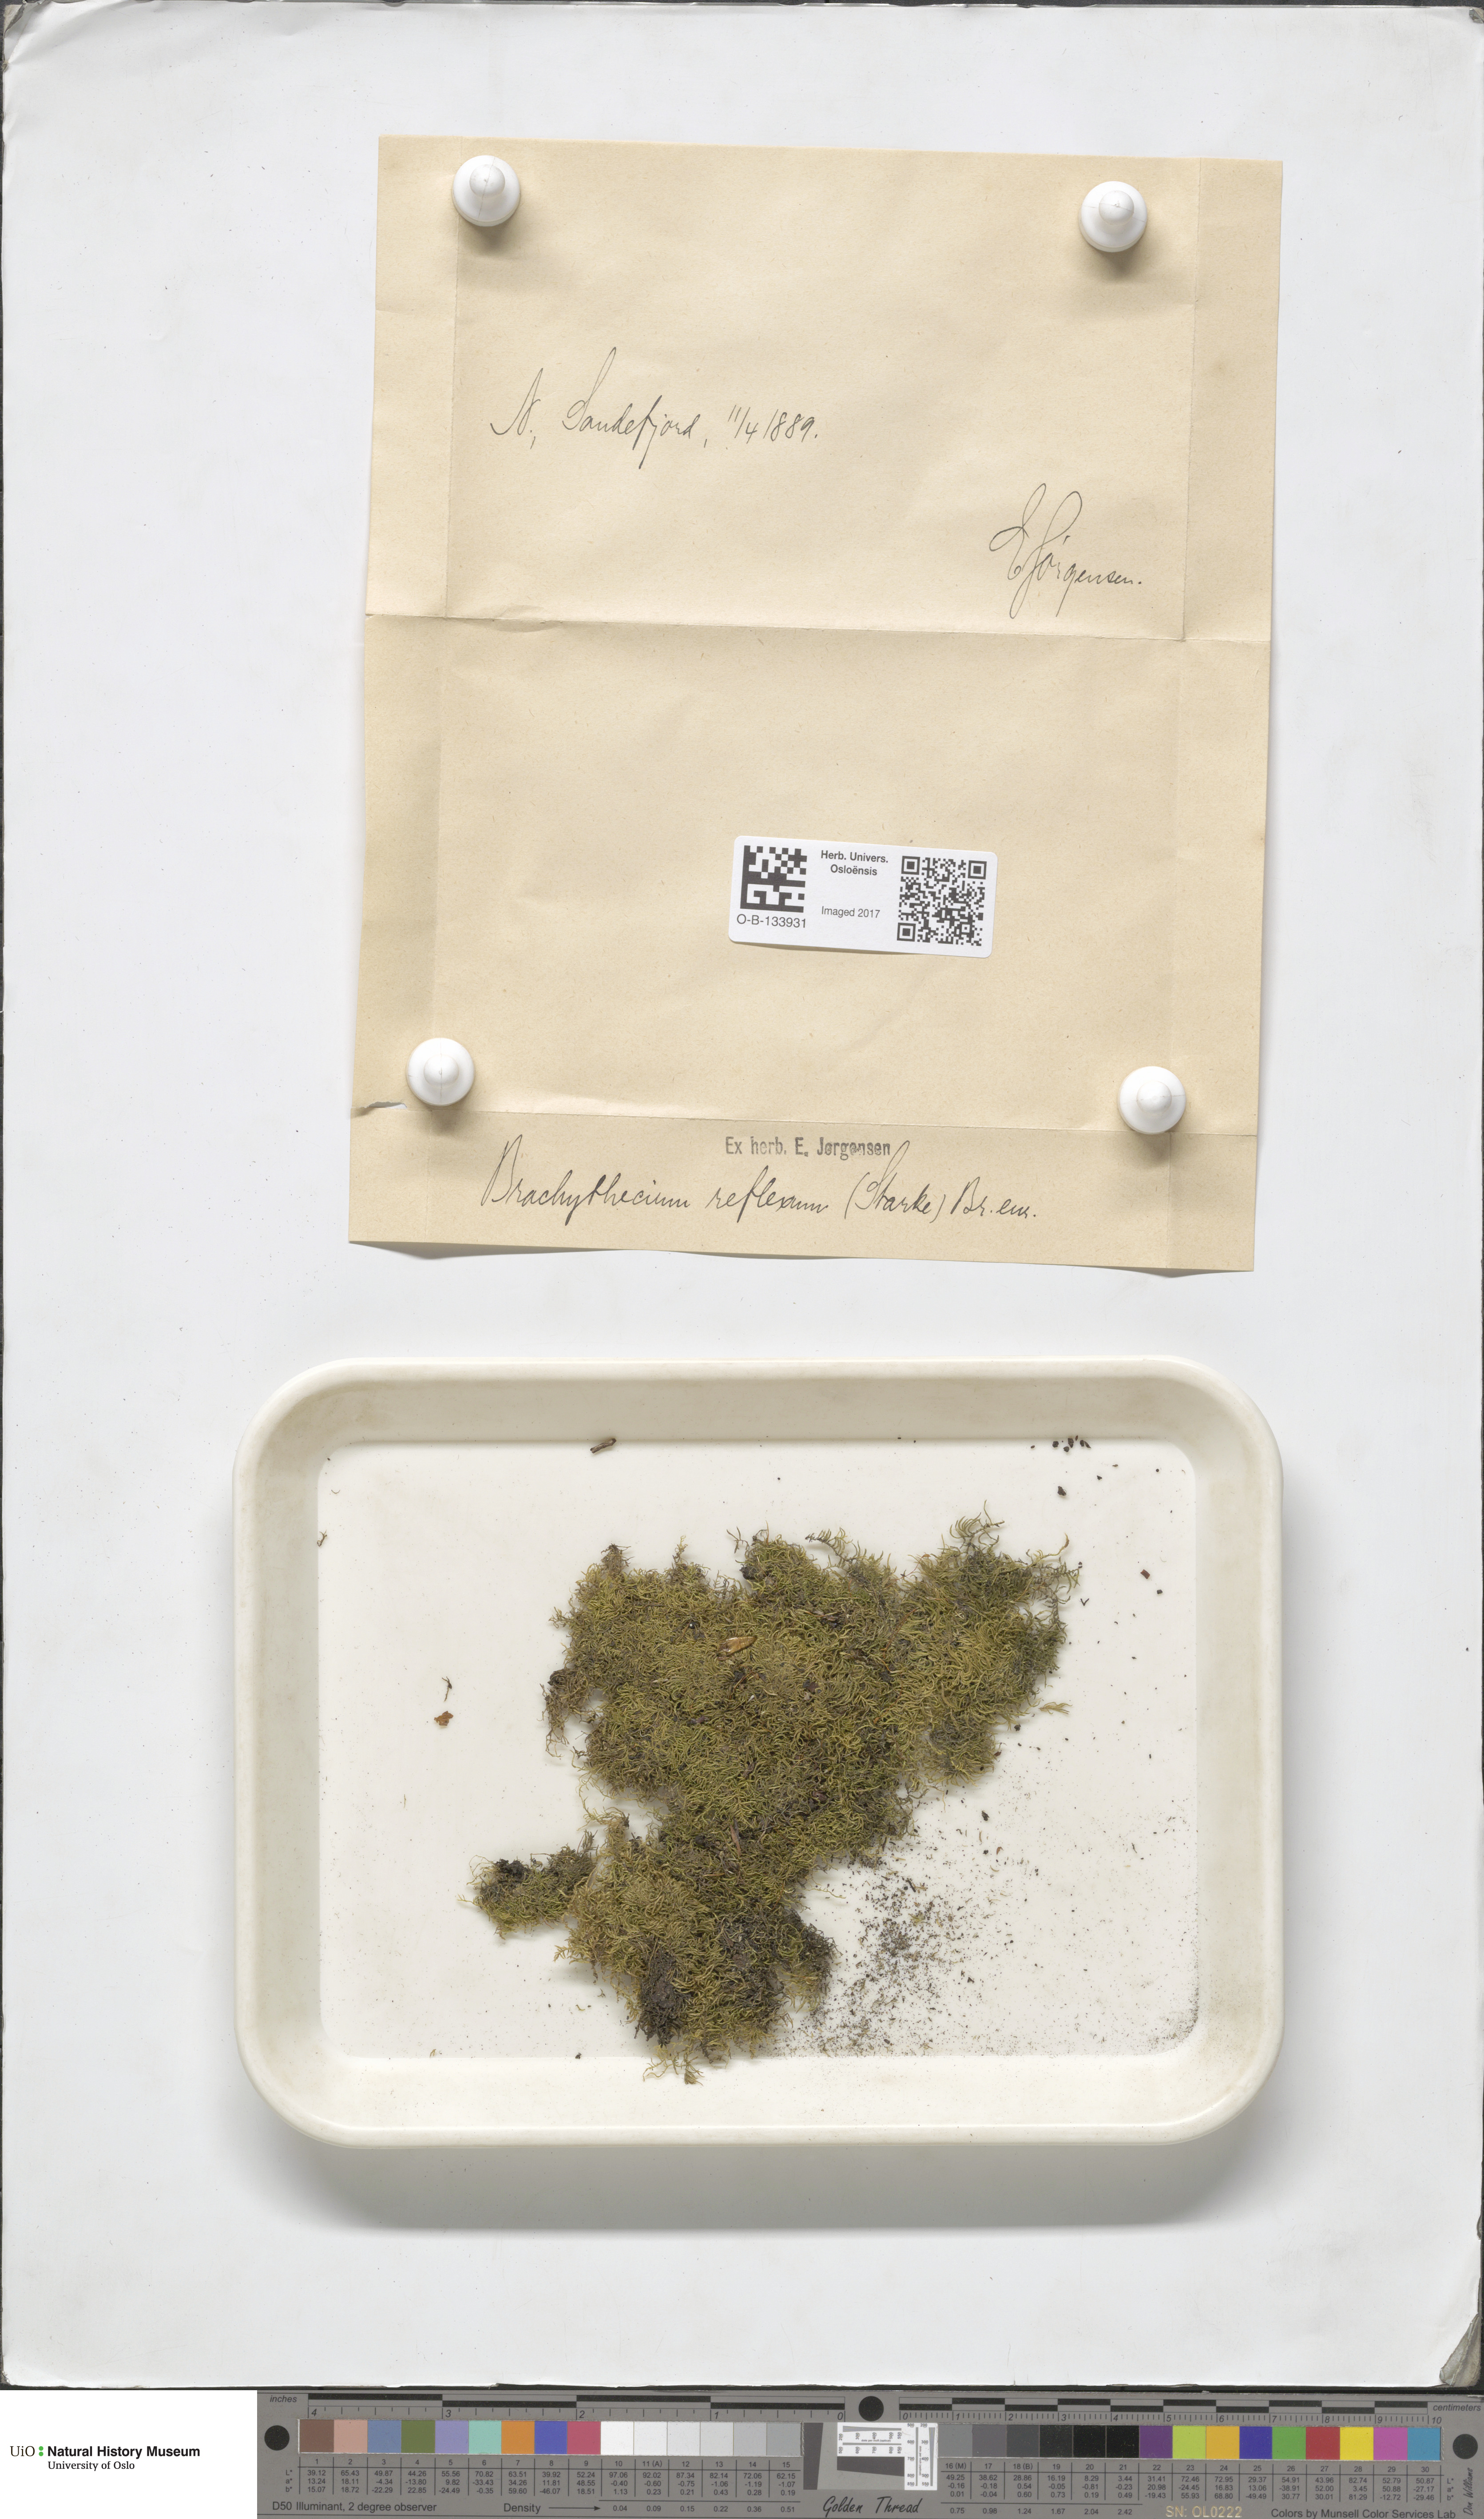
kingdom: Plantae
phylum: Bryophyta
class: Bryopsida
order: Hypnales
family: Brachytheciaceae
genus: Sciuro-hypnum
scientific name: Sciuro-hypnum reflexum
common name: Reflexed feather-moss
